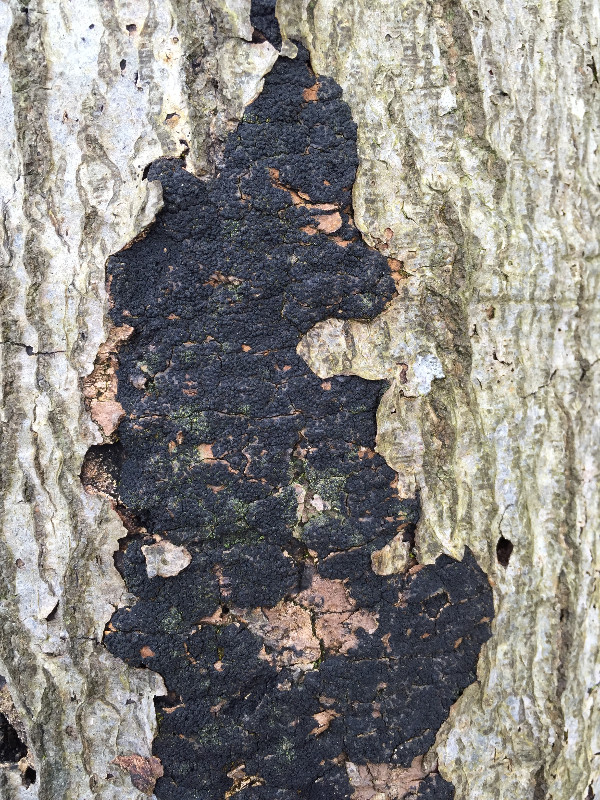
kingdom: Fungi
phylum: Ascomycota
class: Sordariomycetes
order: Xylariales
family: Diatrypaceae
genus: Eutypa
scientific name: Eutypa spinosa
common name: grov kulskorpe
